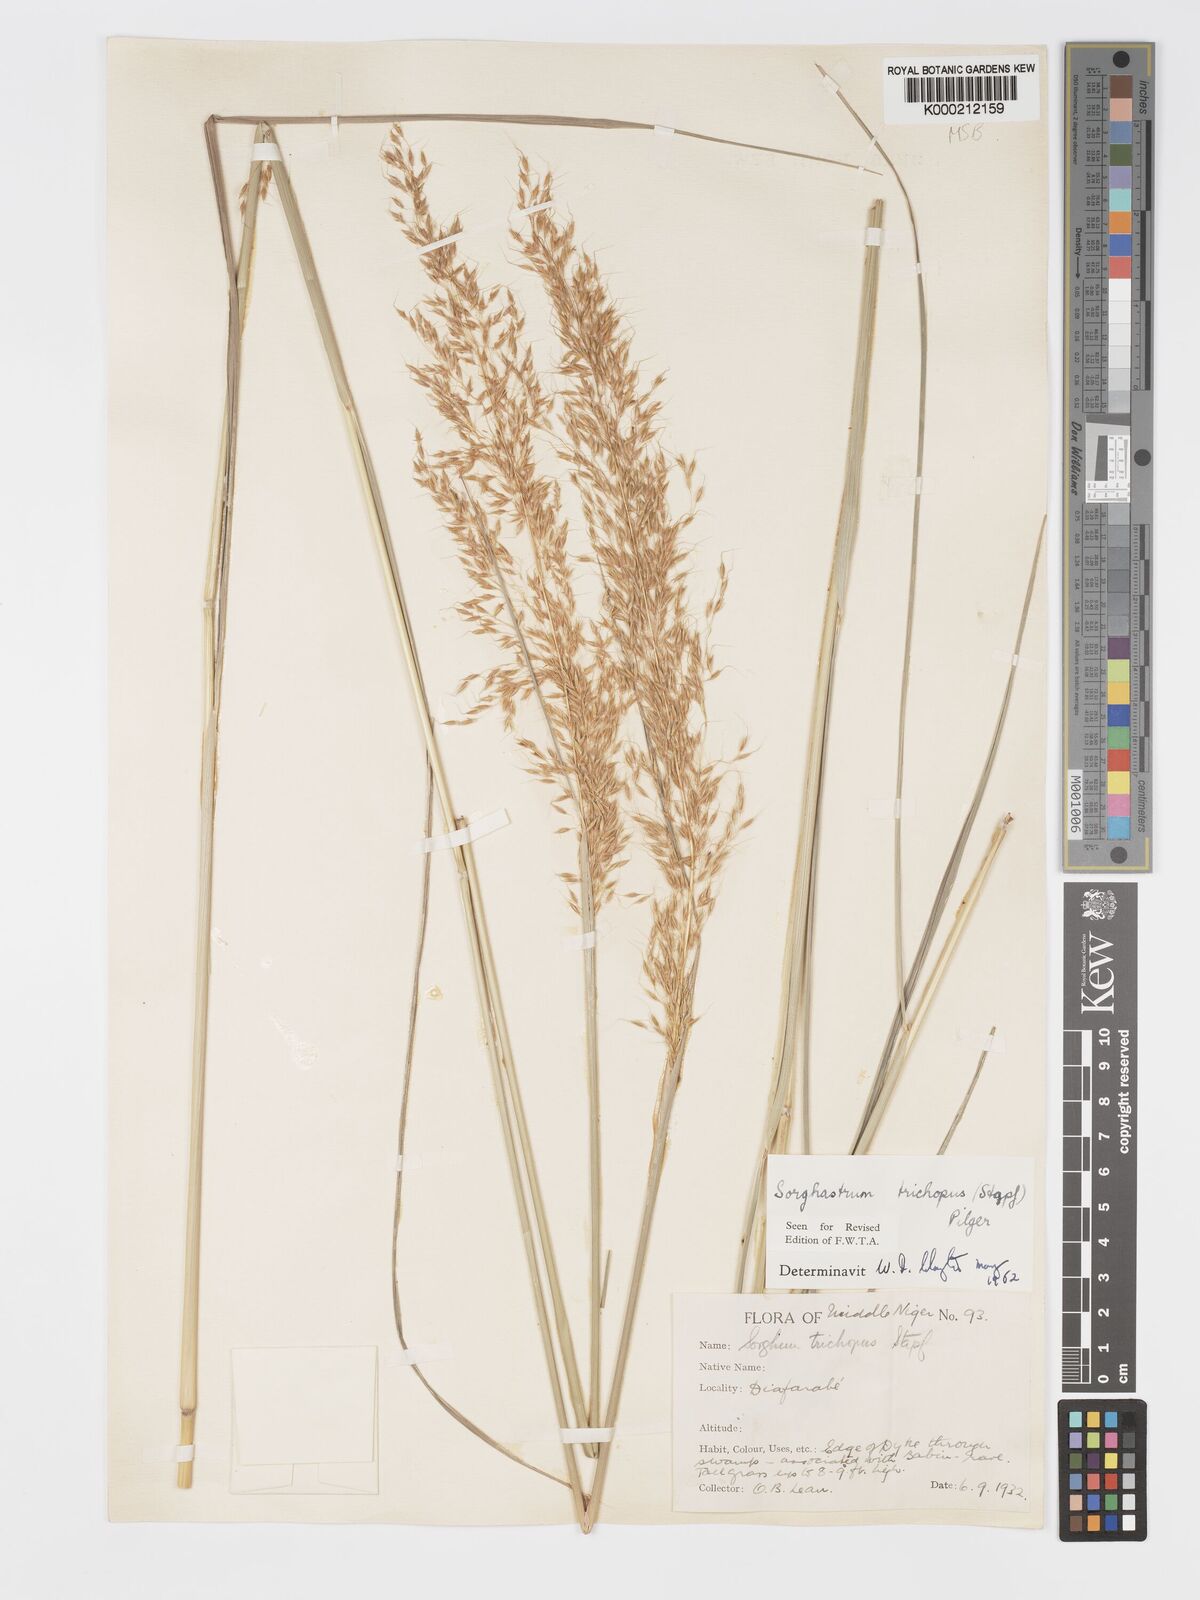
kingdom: Plantae
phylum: Tracheophyta
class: Liliopsida
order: Poales
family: Poaceae
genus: Sorghastrum
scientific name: Sorghastrum stipoides
